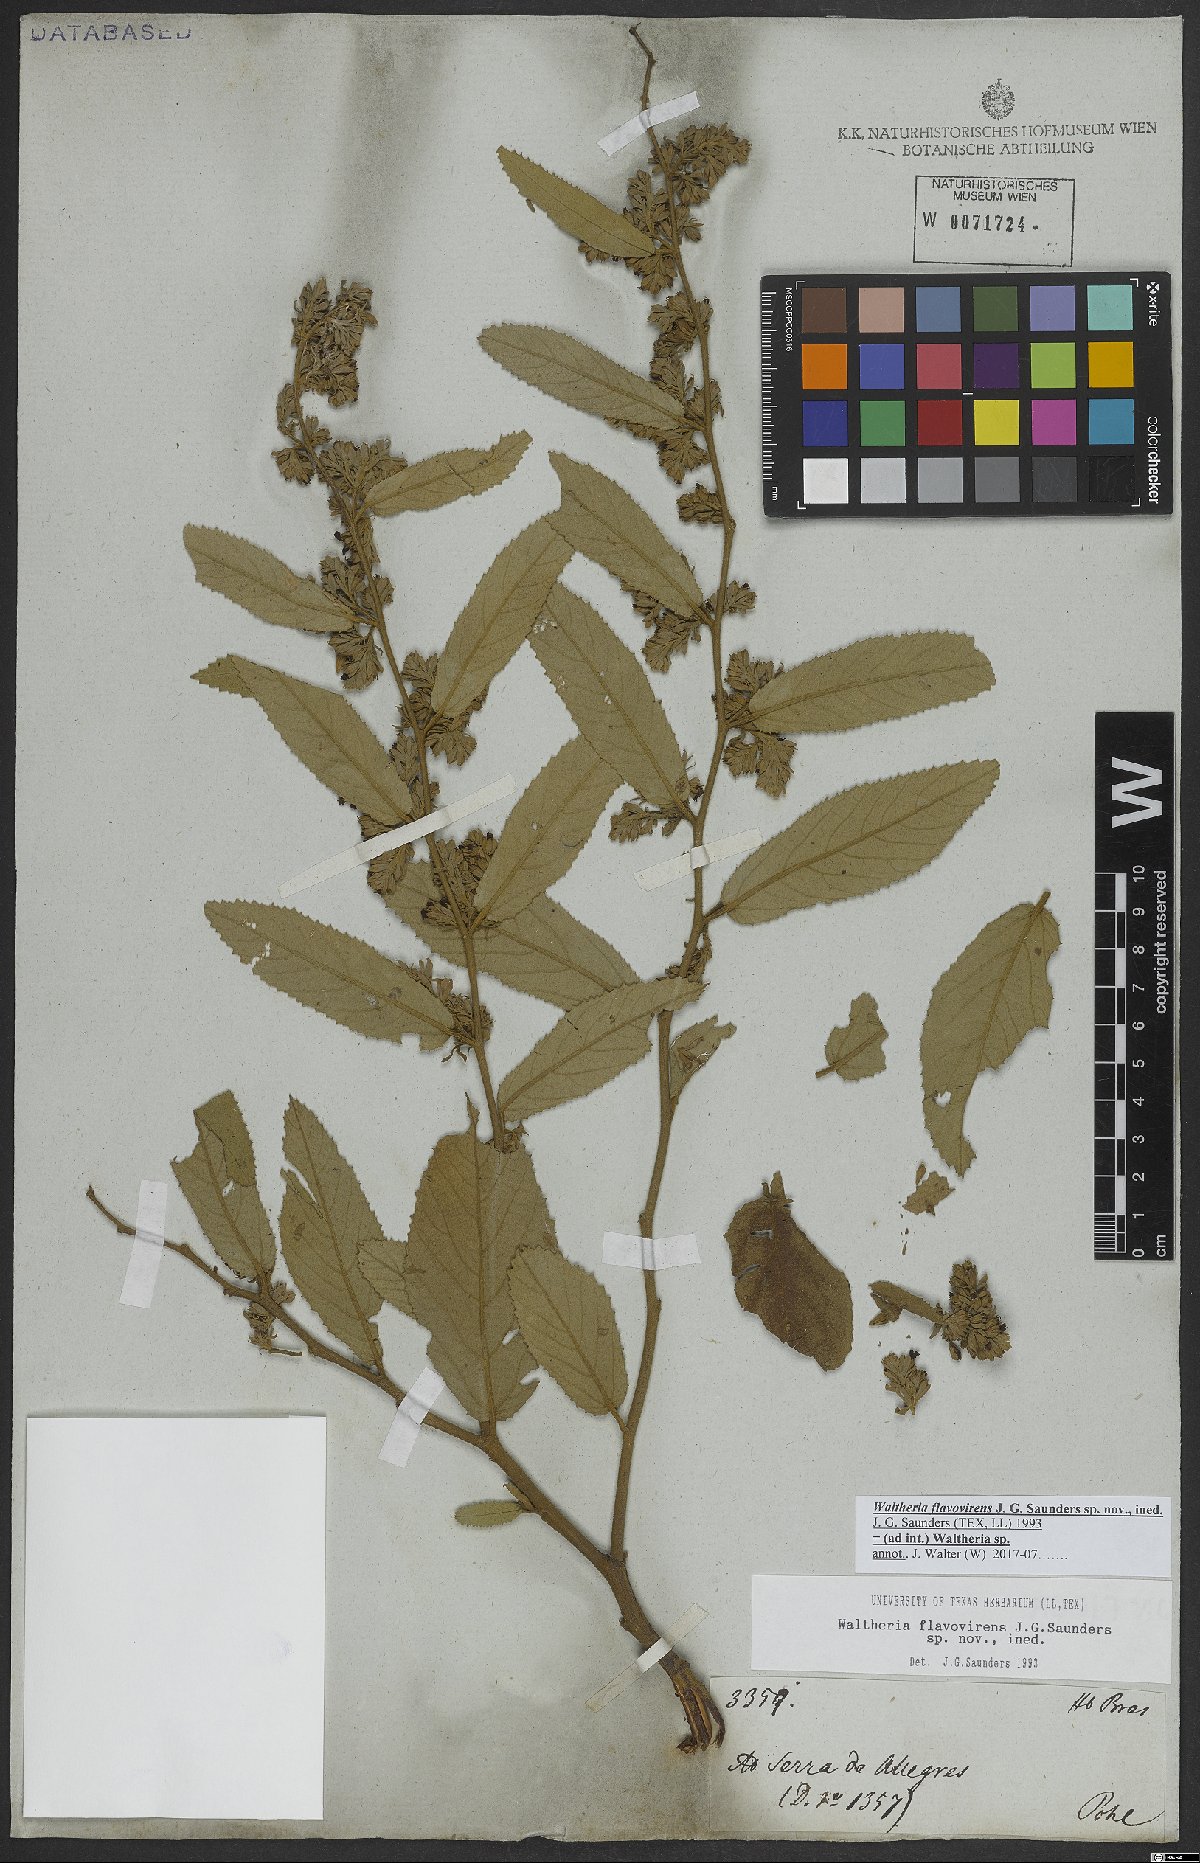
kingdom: Plantae
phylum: Tracheophyta
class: Magnoliopsida
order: Malvales
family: Malvaceae
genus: Waltheria
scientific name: Waltheria
